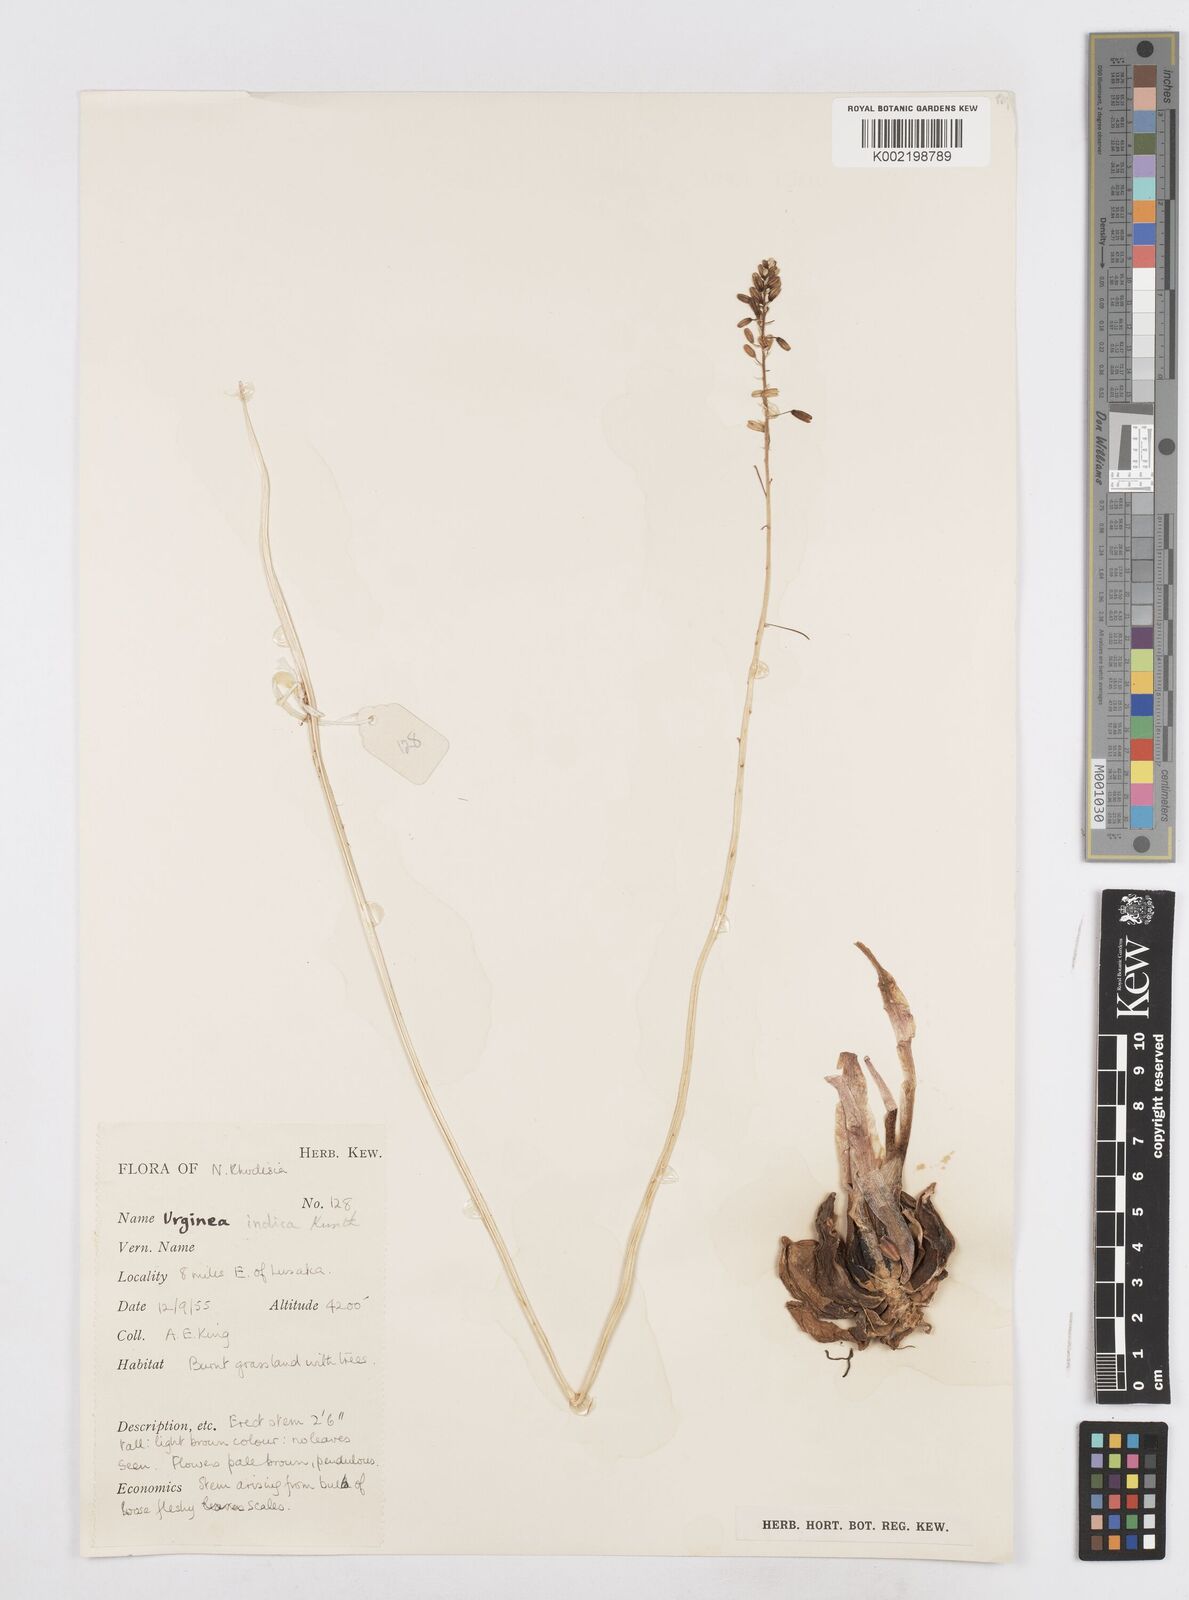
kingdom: Plantae
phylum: Tracheophyta
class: Liliopsida
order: Asparagales
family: Asparagaceae
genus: Drimia
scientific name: Drimia sanguinea
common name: Transvaal slangkop
